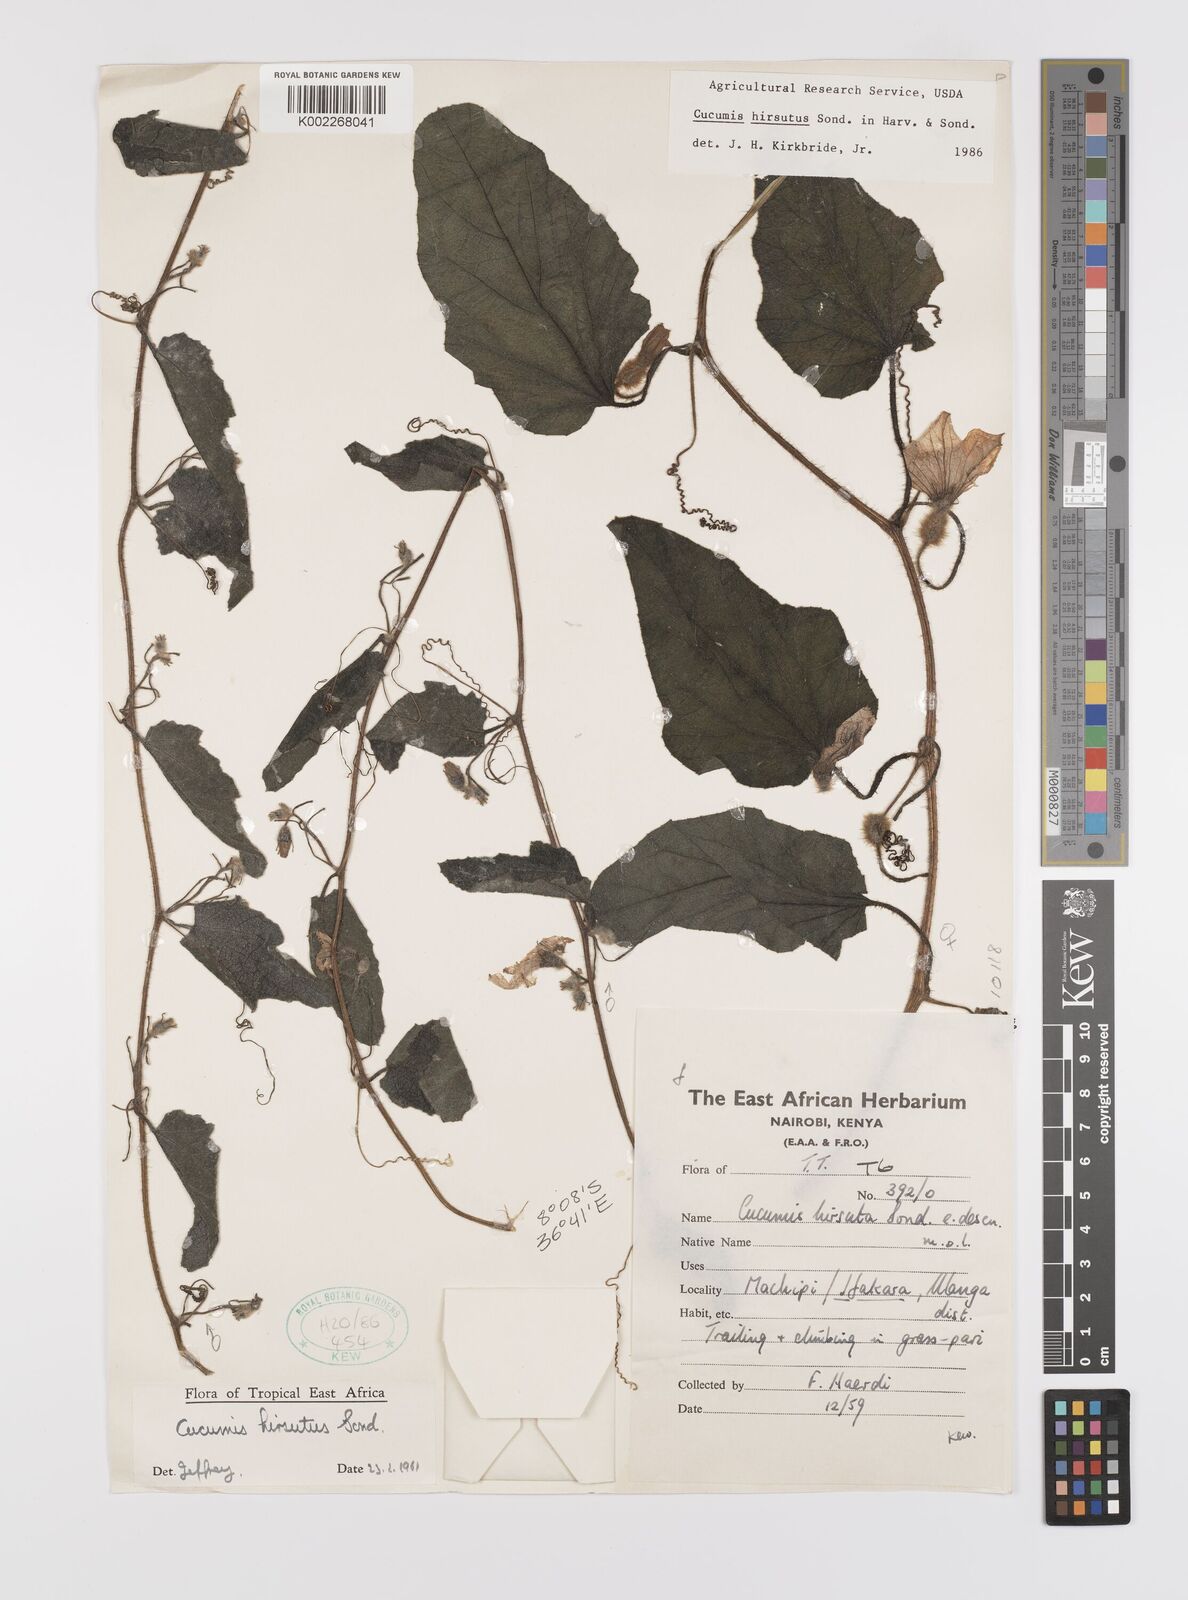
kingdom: Plantae
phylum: Tracheophyta
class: Magnoliopsida
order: Cucurbitales
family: Cucurbitaceae
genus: Cucumis
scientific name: Cucumis hirsutus
